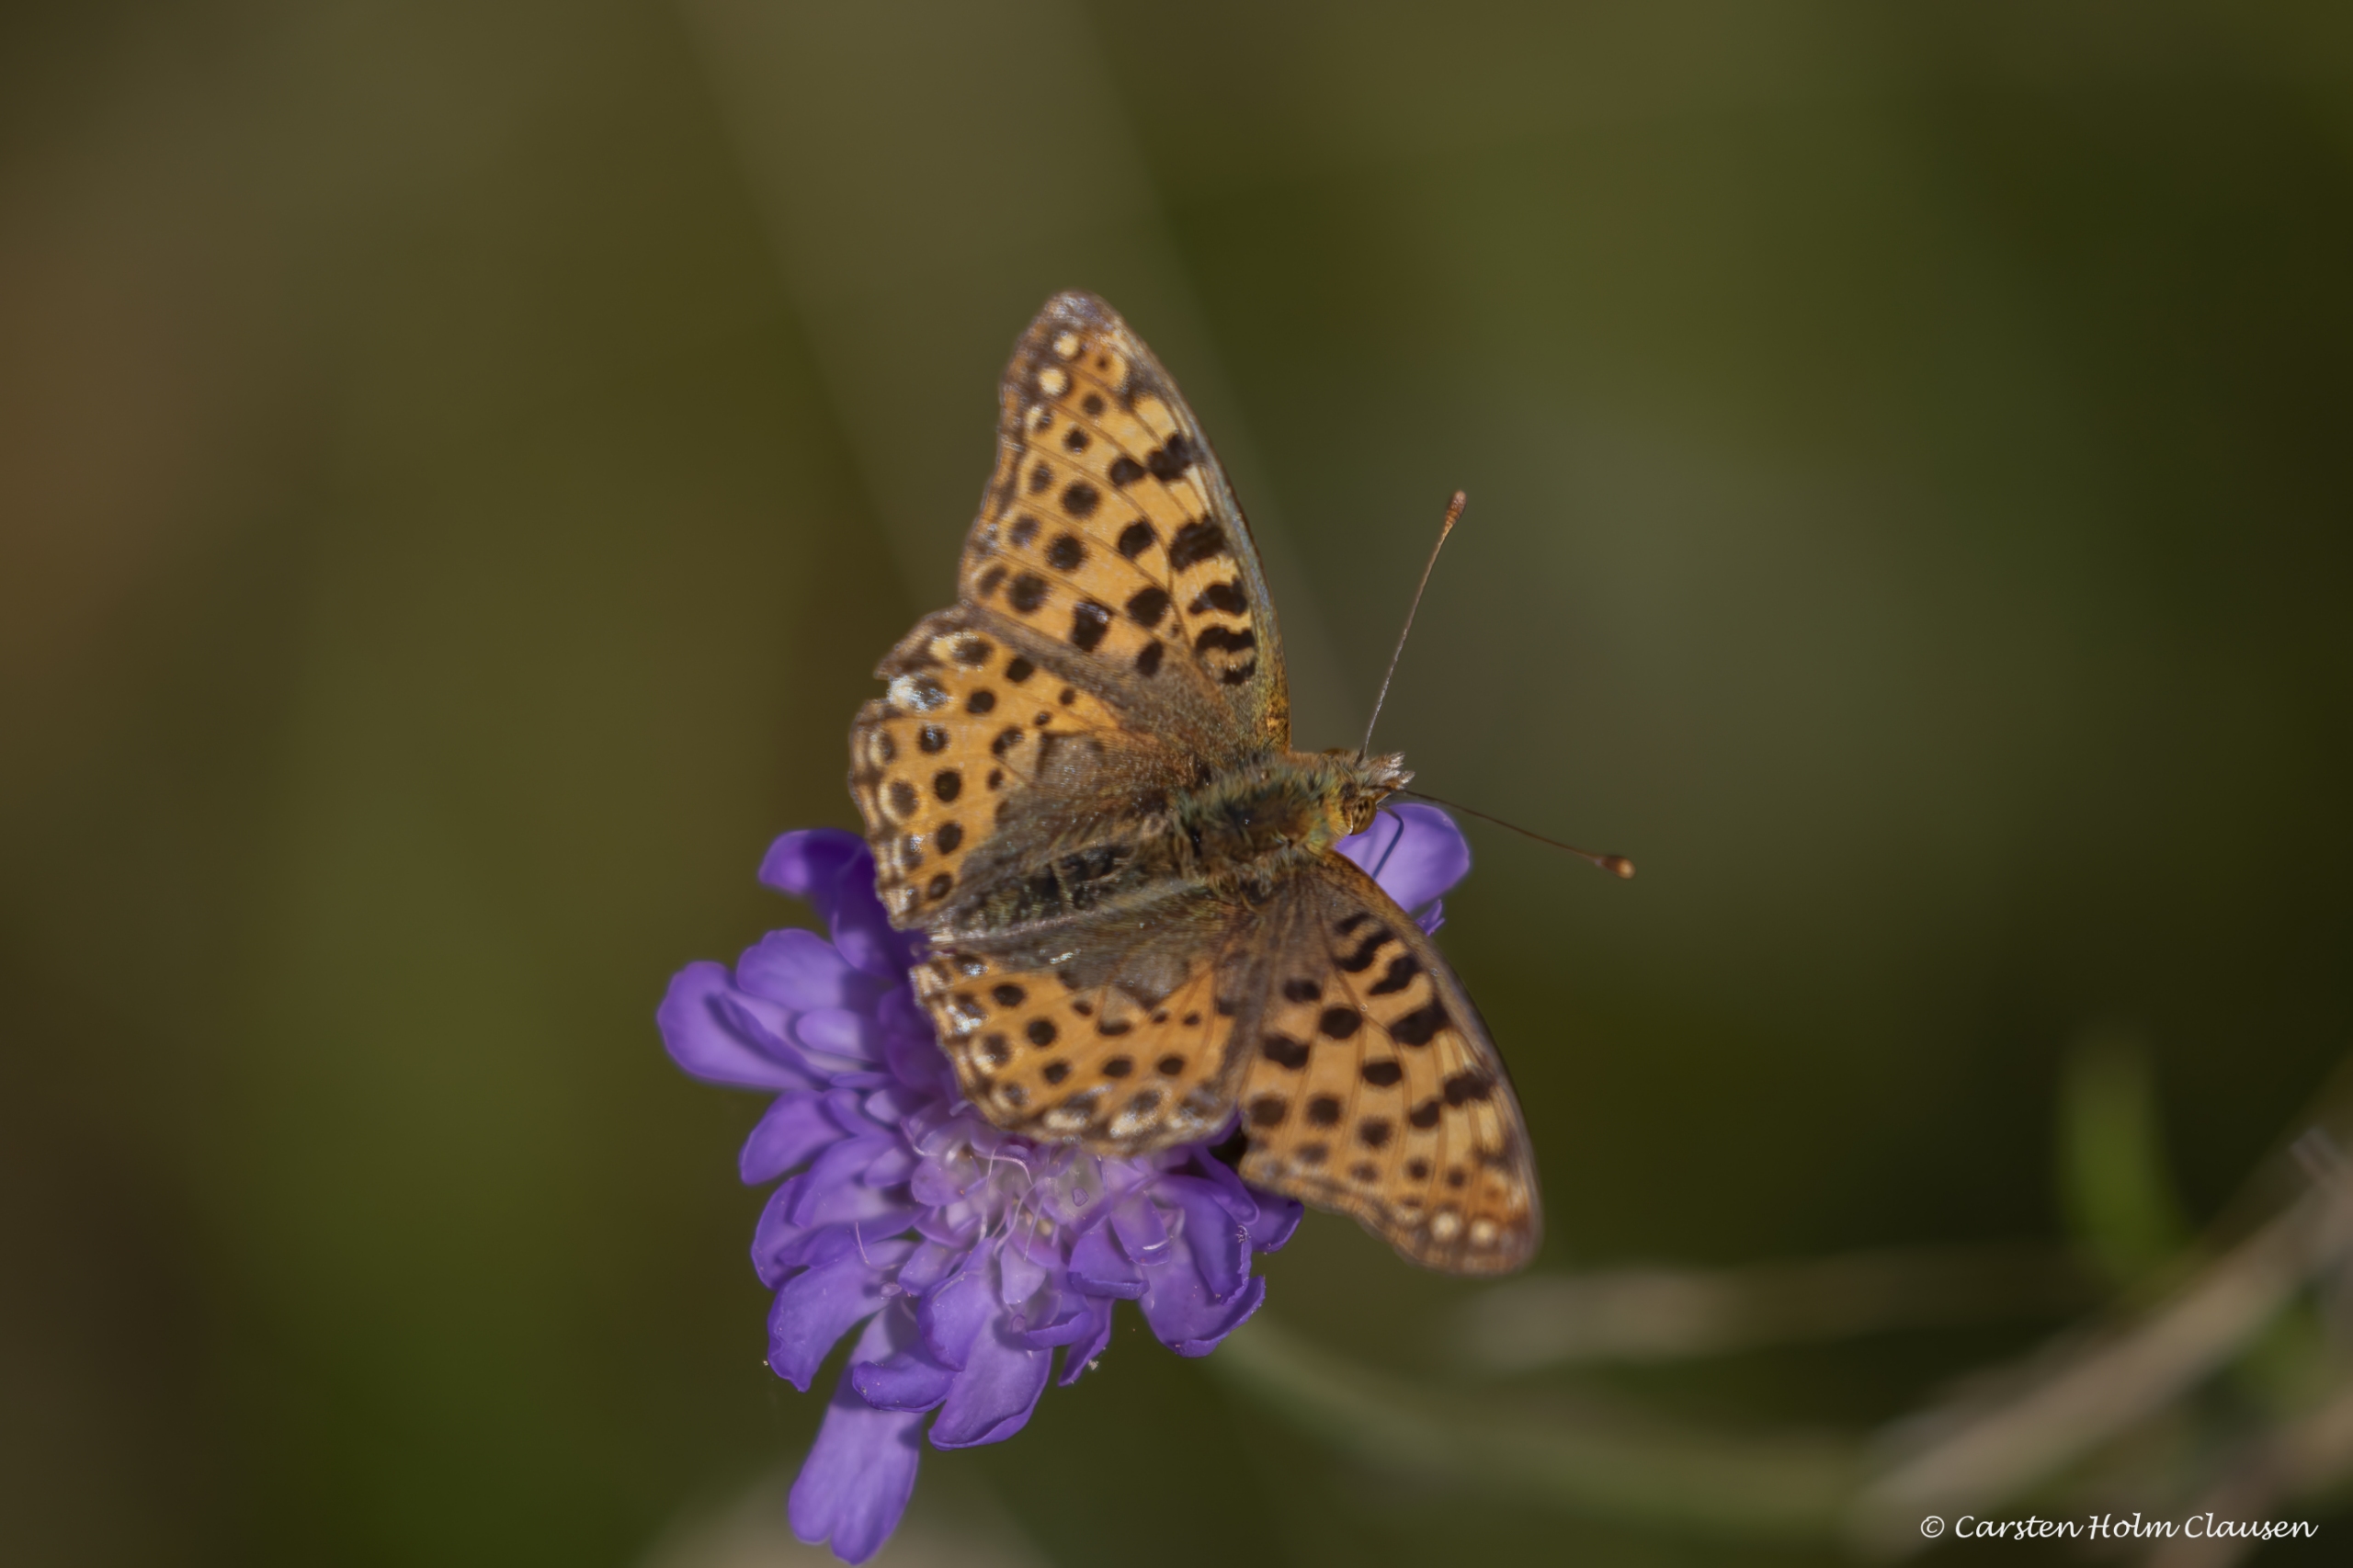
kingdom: Animalia
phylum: Arthropoda
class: Insecta
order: Lepidoptera
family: Nymphalidae
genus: Issoria
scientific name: Issoria lathonia
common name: Storplettet perlemorsommerfugl
